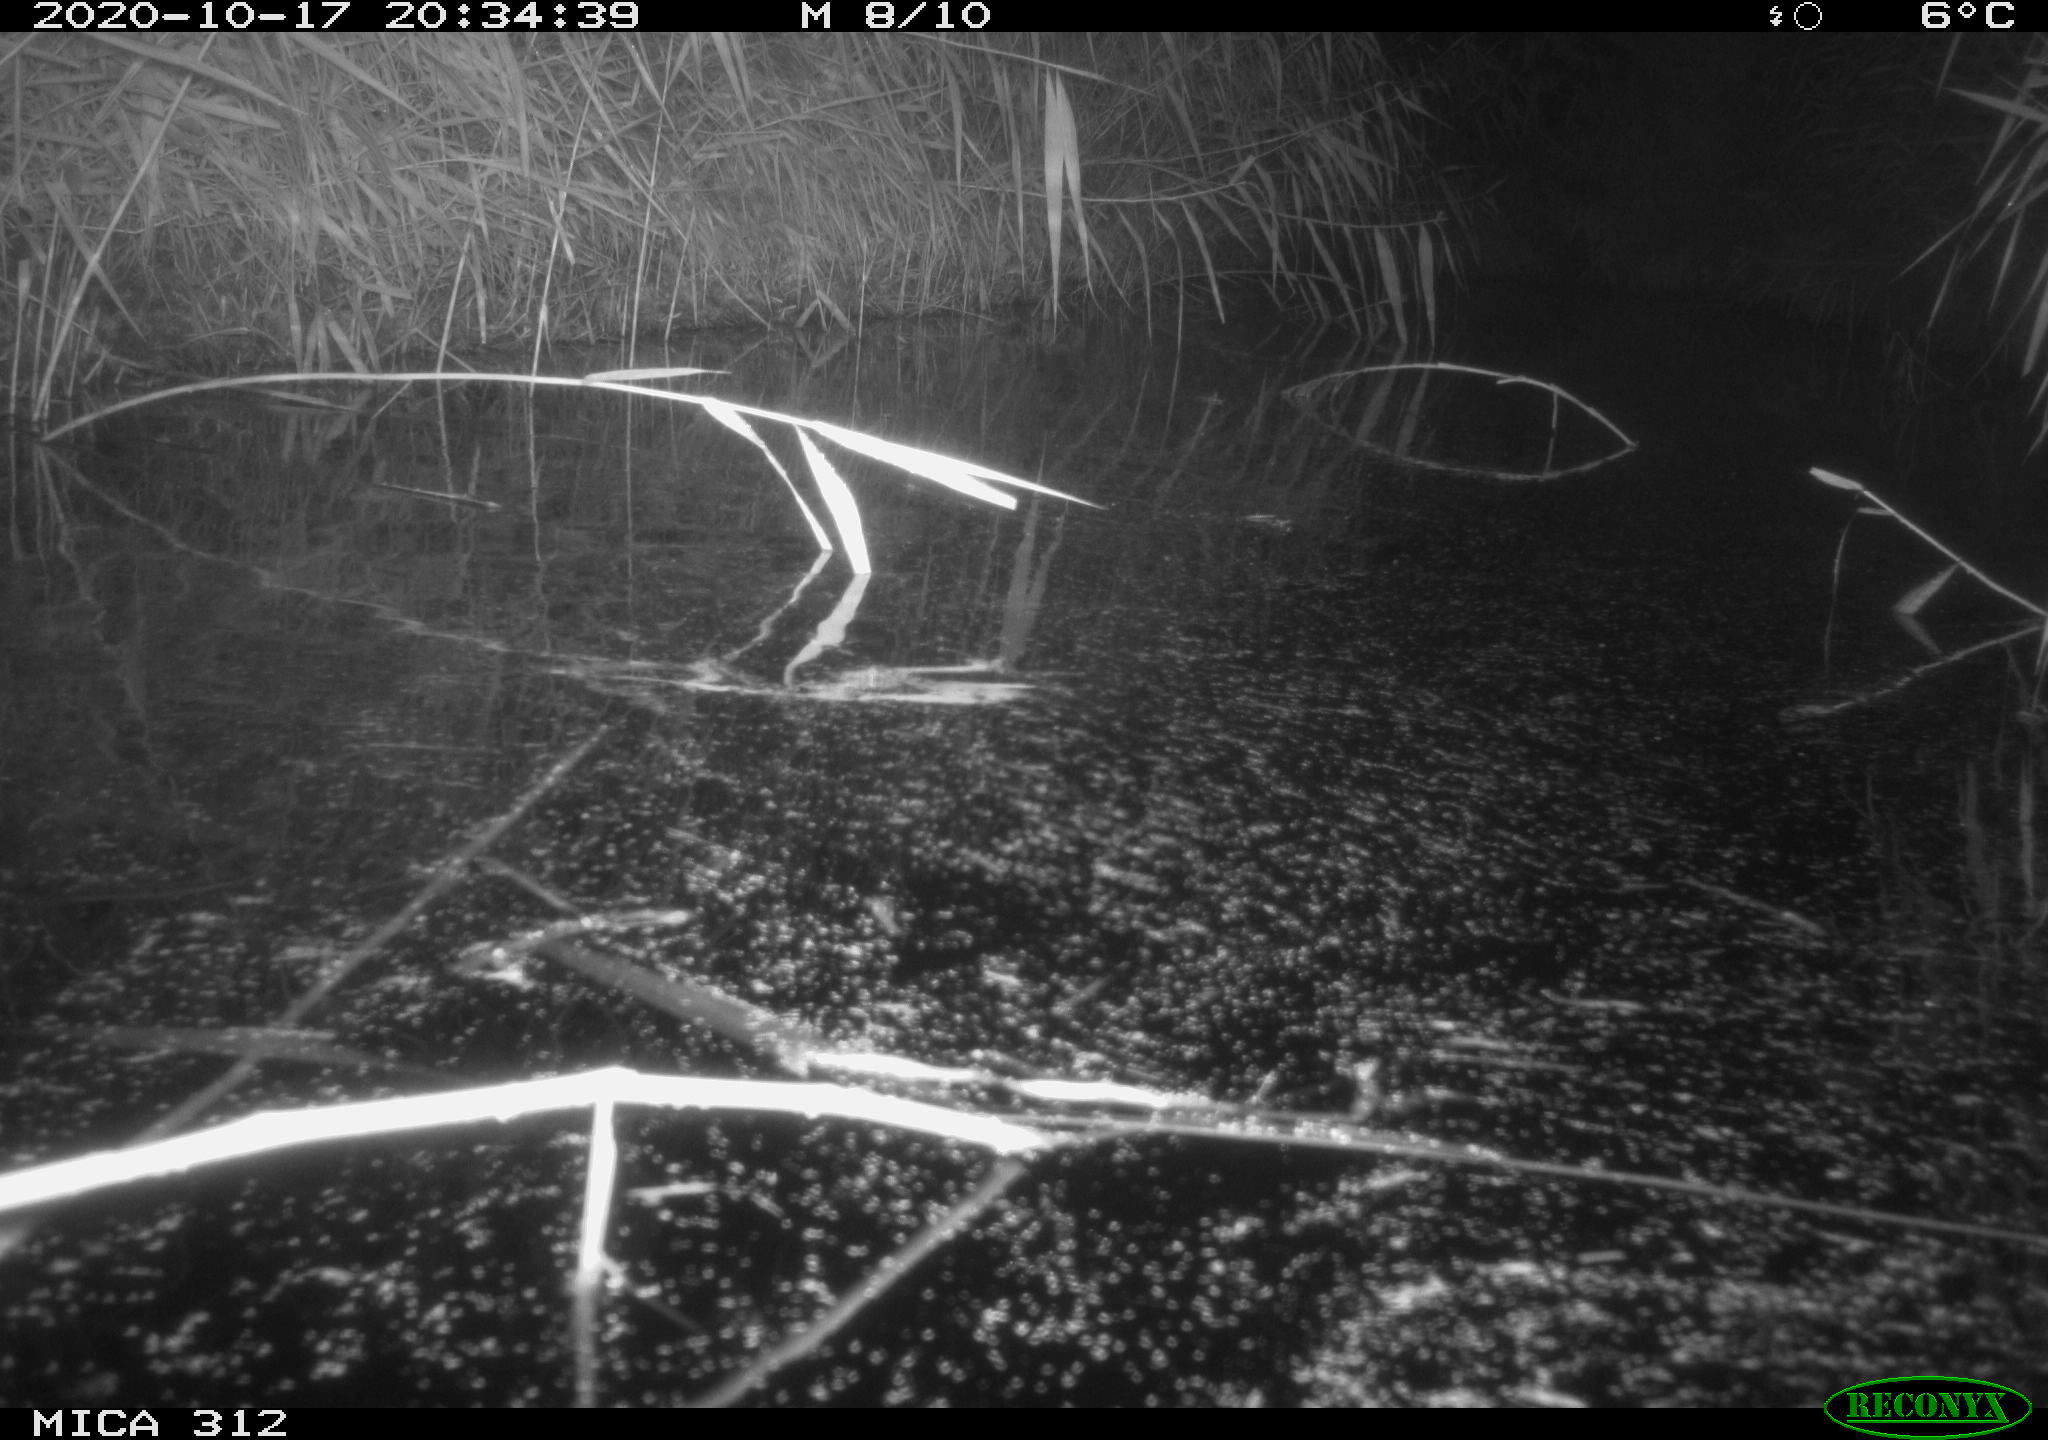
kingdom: Animalia
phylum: Chordata
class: Mammalia
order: Rodentia
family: Muridae
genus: Rattus
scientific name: Rattus norvegicus
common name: Brown rat
